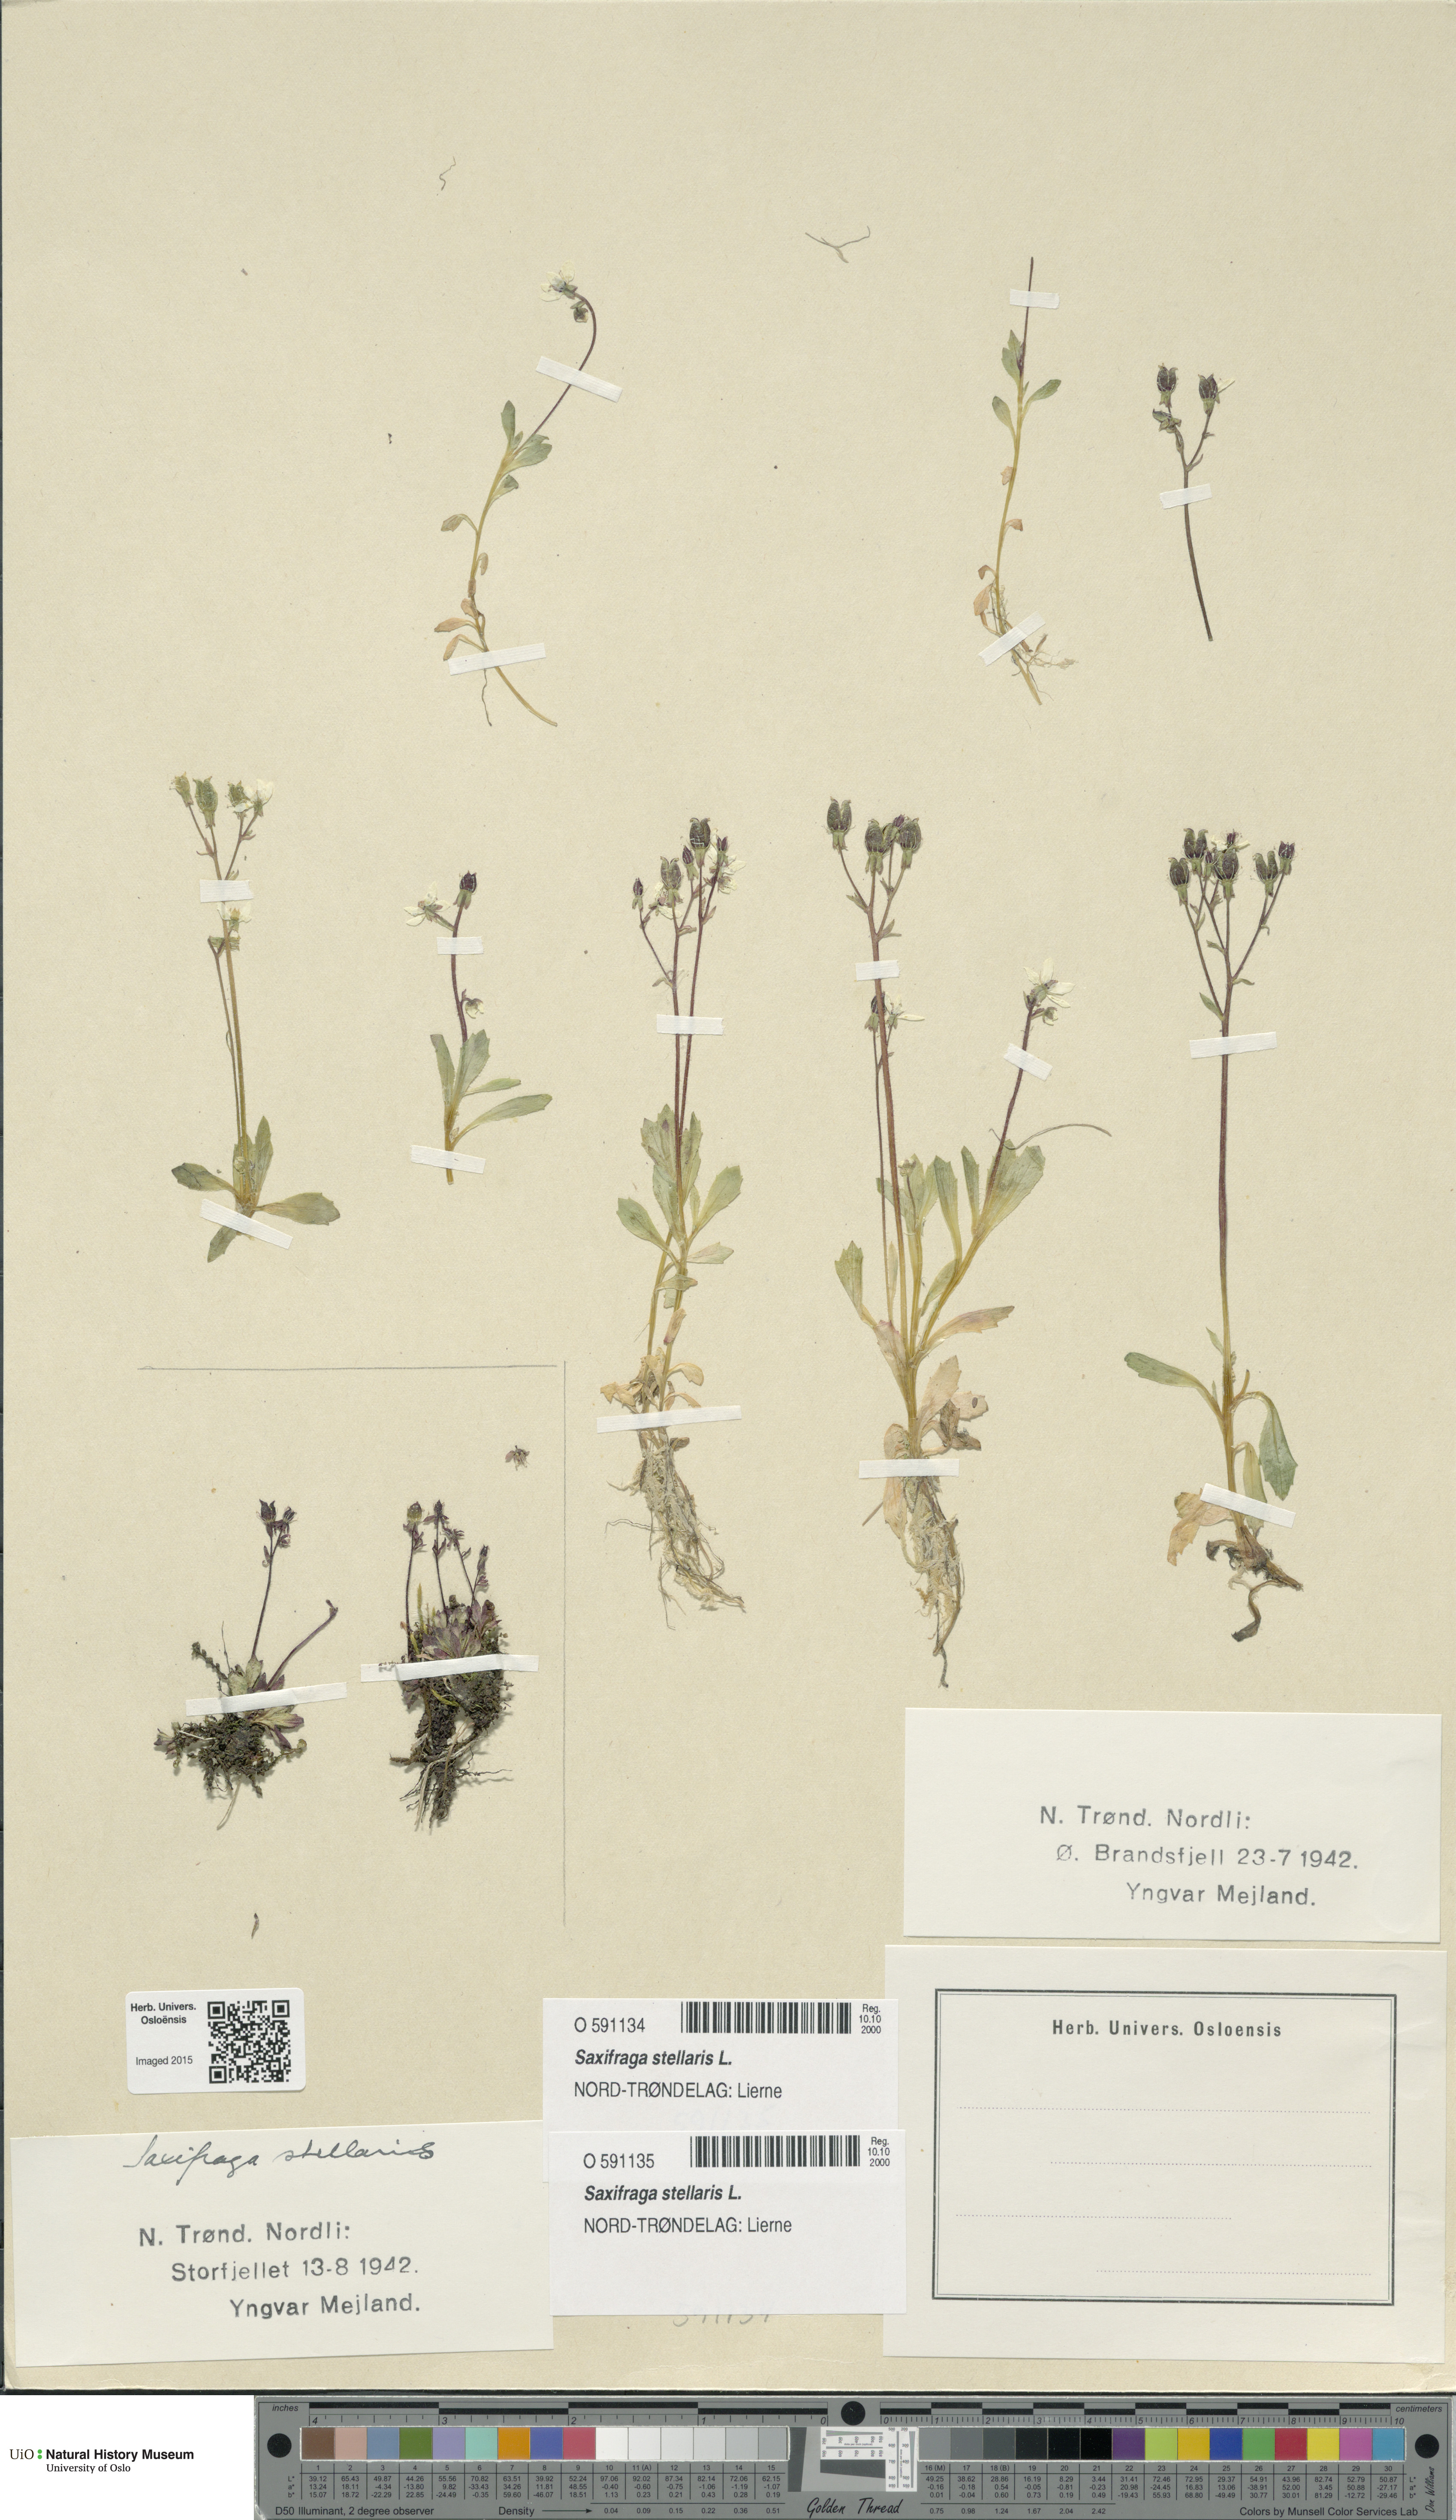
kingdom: Plantae
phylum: Tracheophyta
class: Magnoliopsida
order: Saxifragales
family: Saxifragaceae
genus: Micranthes
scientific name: Micranthes stellaris
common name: Starry saxifrage
